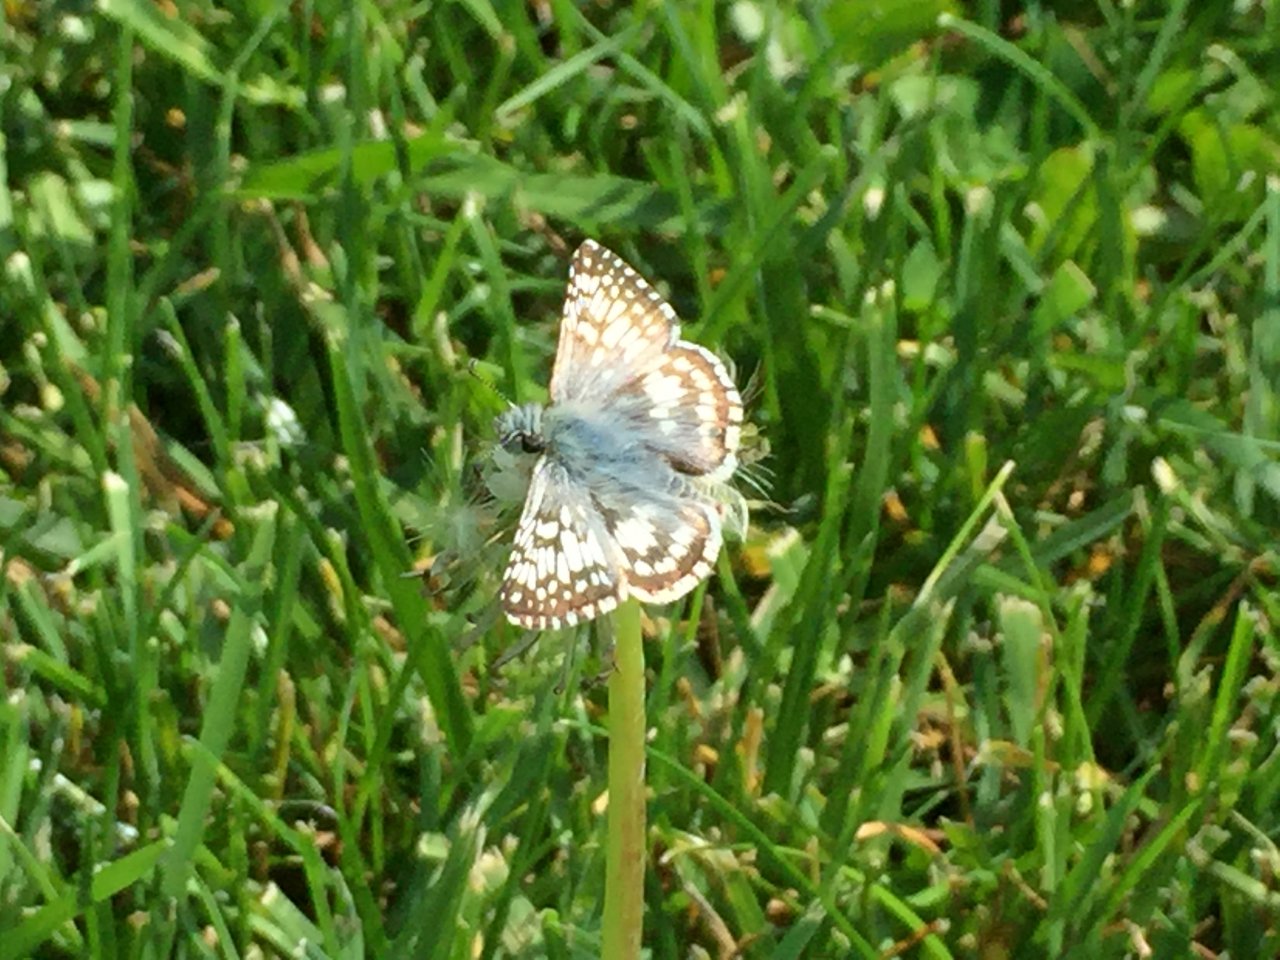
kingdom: Animalia
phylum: Arthropoda
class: Insecta
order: Lepidoptera
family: Hesperiidae
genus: Pyrgus
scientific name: Pyrgus communis
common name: Common Checkered-Skipper
